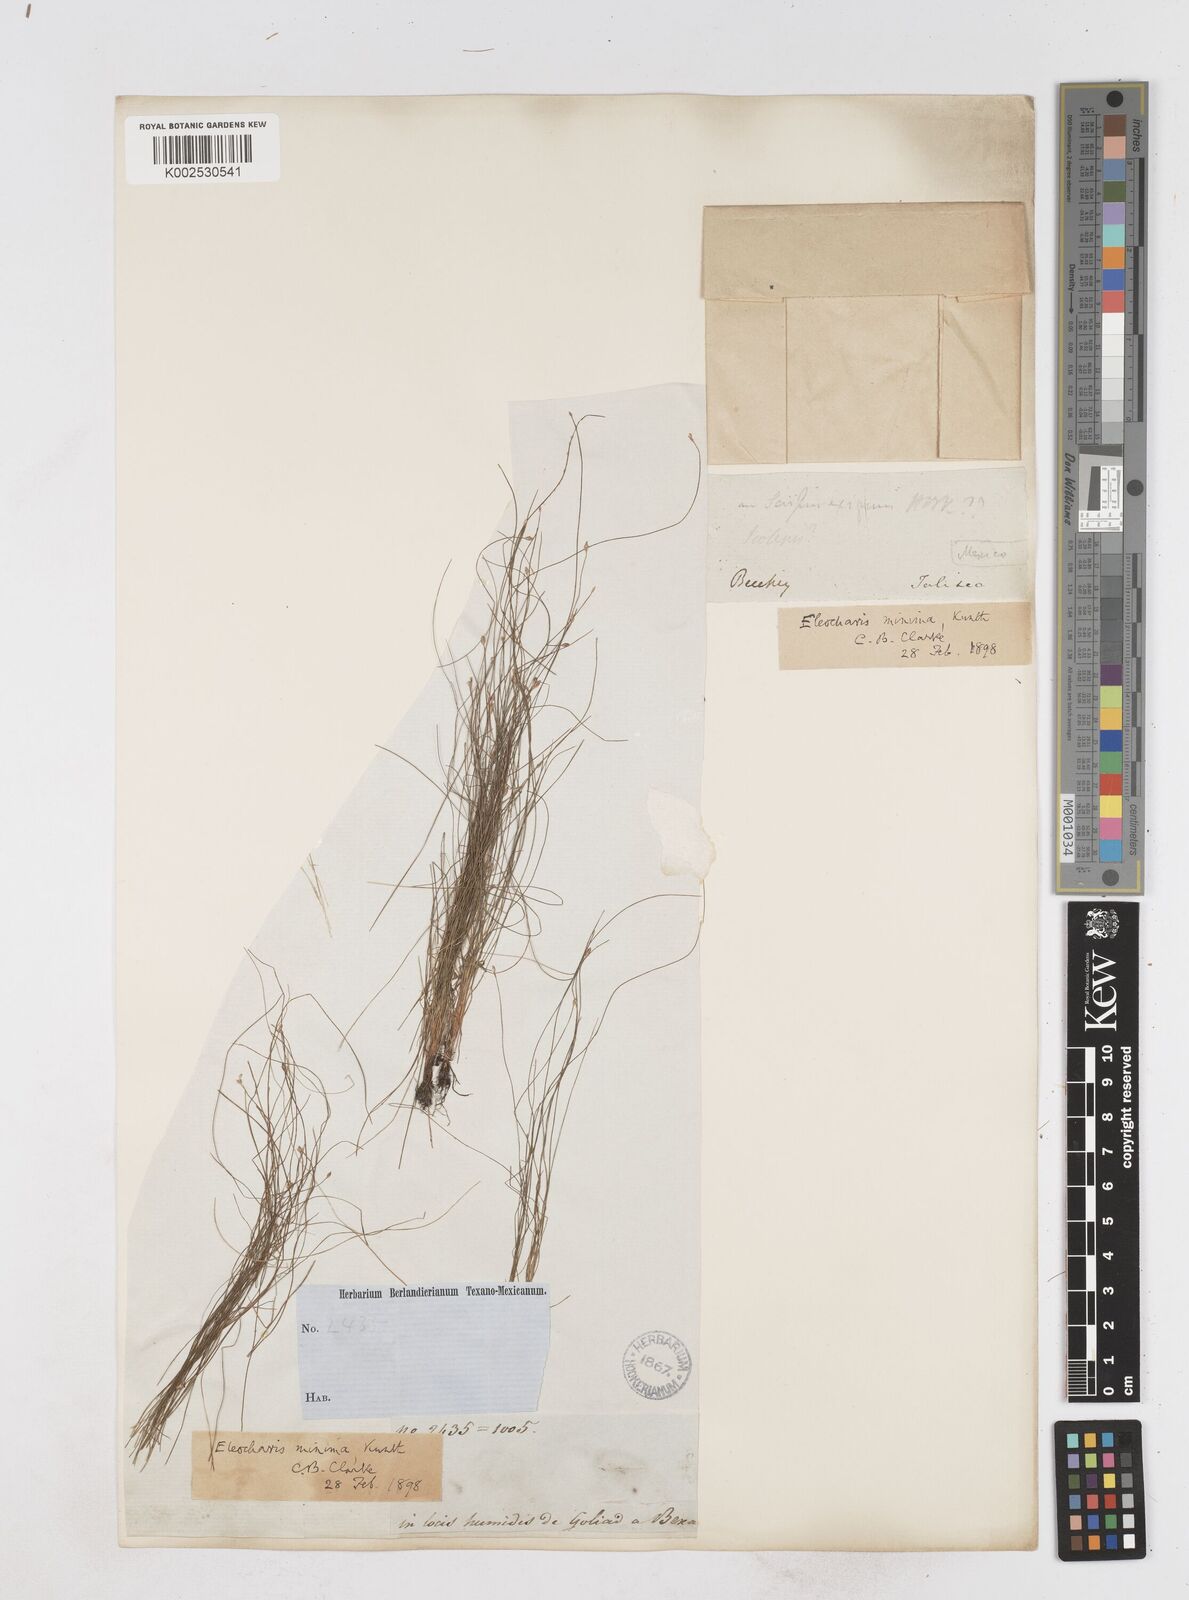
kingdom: Plantae
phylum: Tracheophyta
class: Liliopsida
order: Poales
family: Cyperaceae
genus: Eleocharis
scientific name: Eleocharis minima
